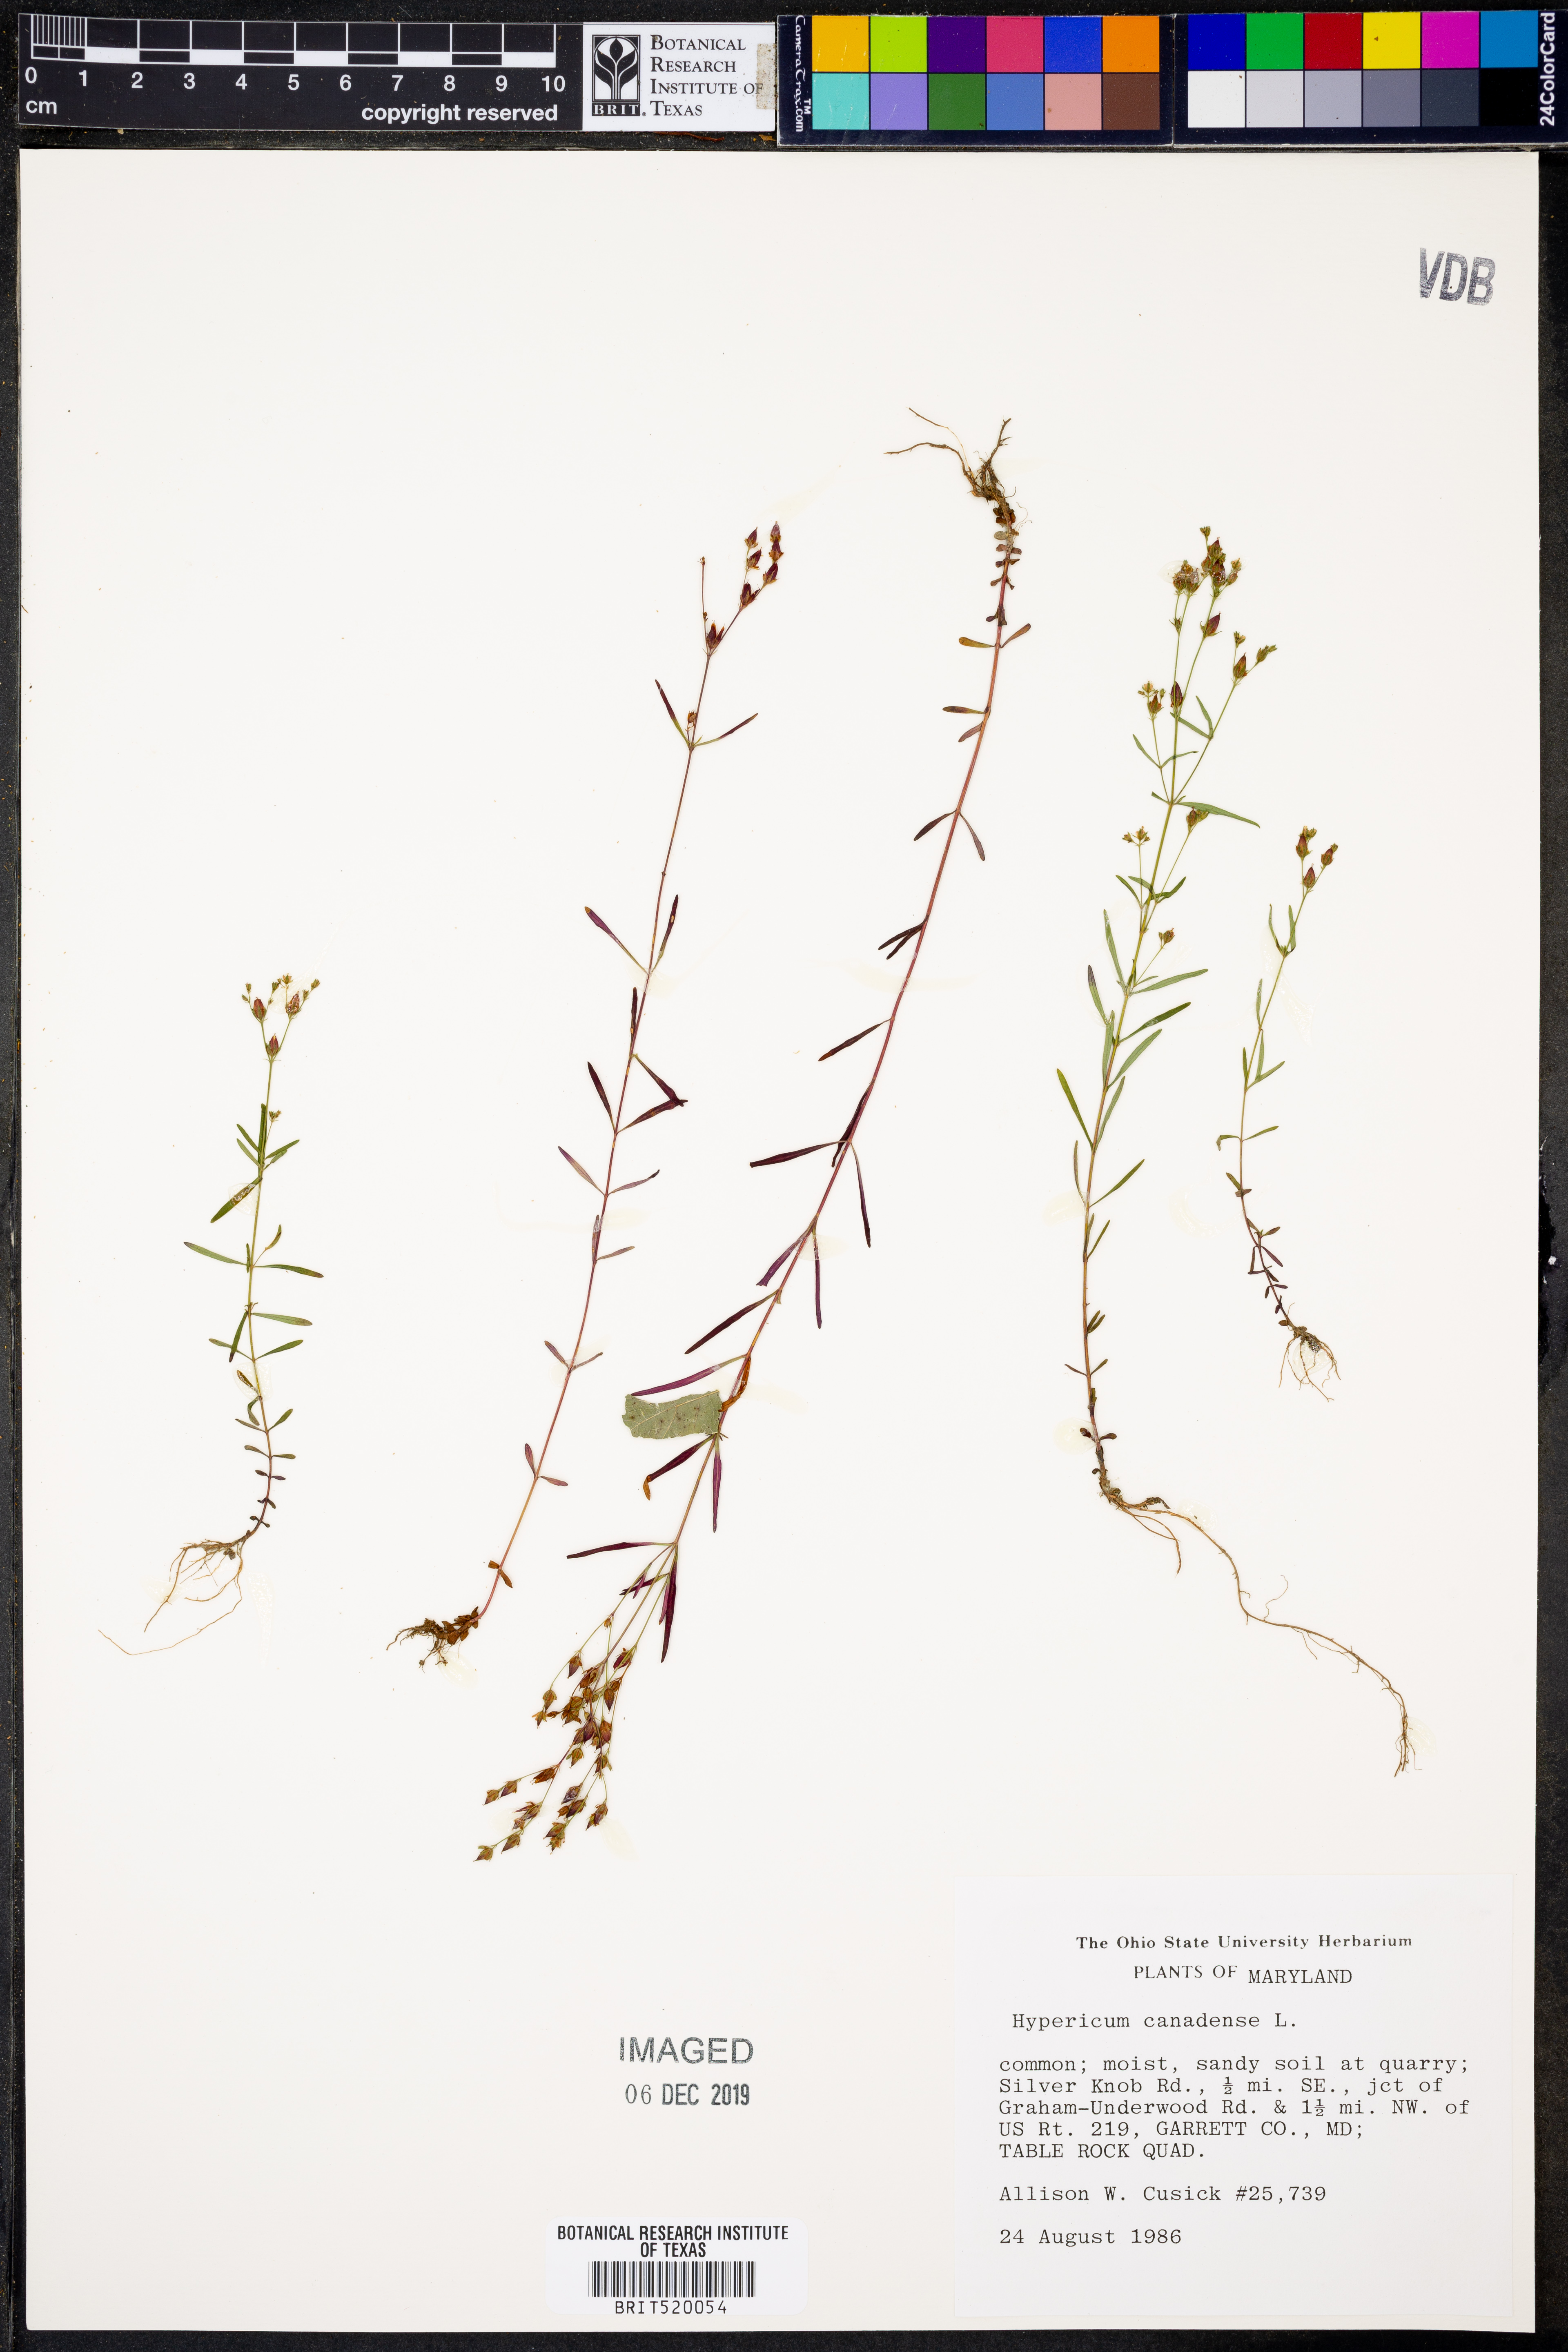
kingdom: Plantae
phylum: Tracheophyta
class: Magnoliopsida
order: Malpighiales
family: Hypericaceae
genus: Hypericum
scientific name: Hypericum canadense
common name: Irish st. john's-wort
